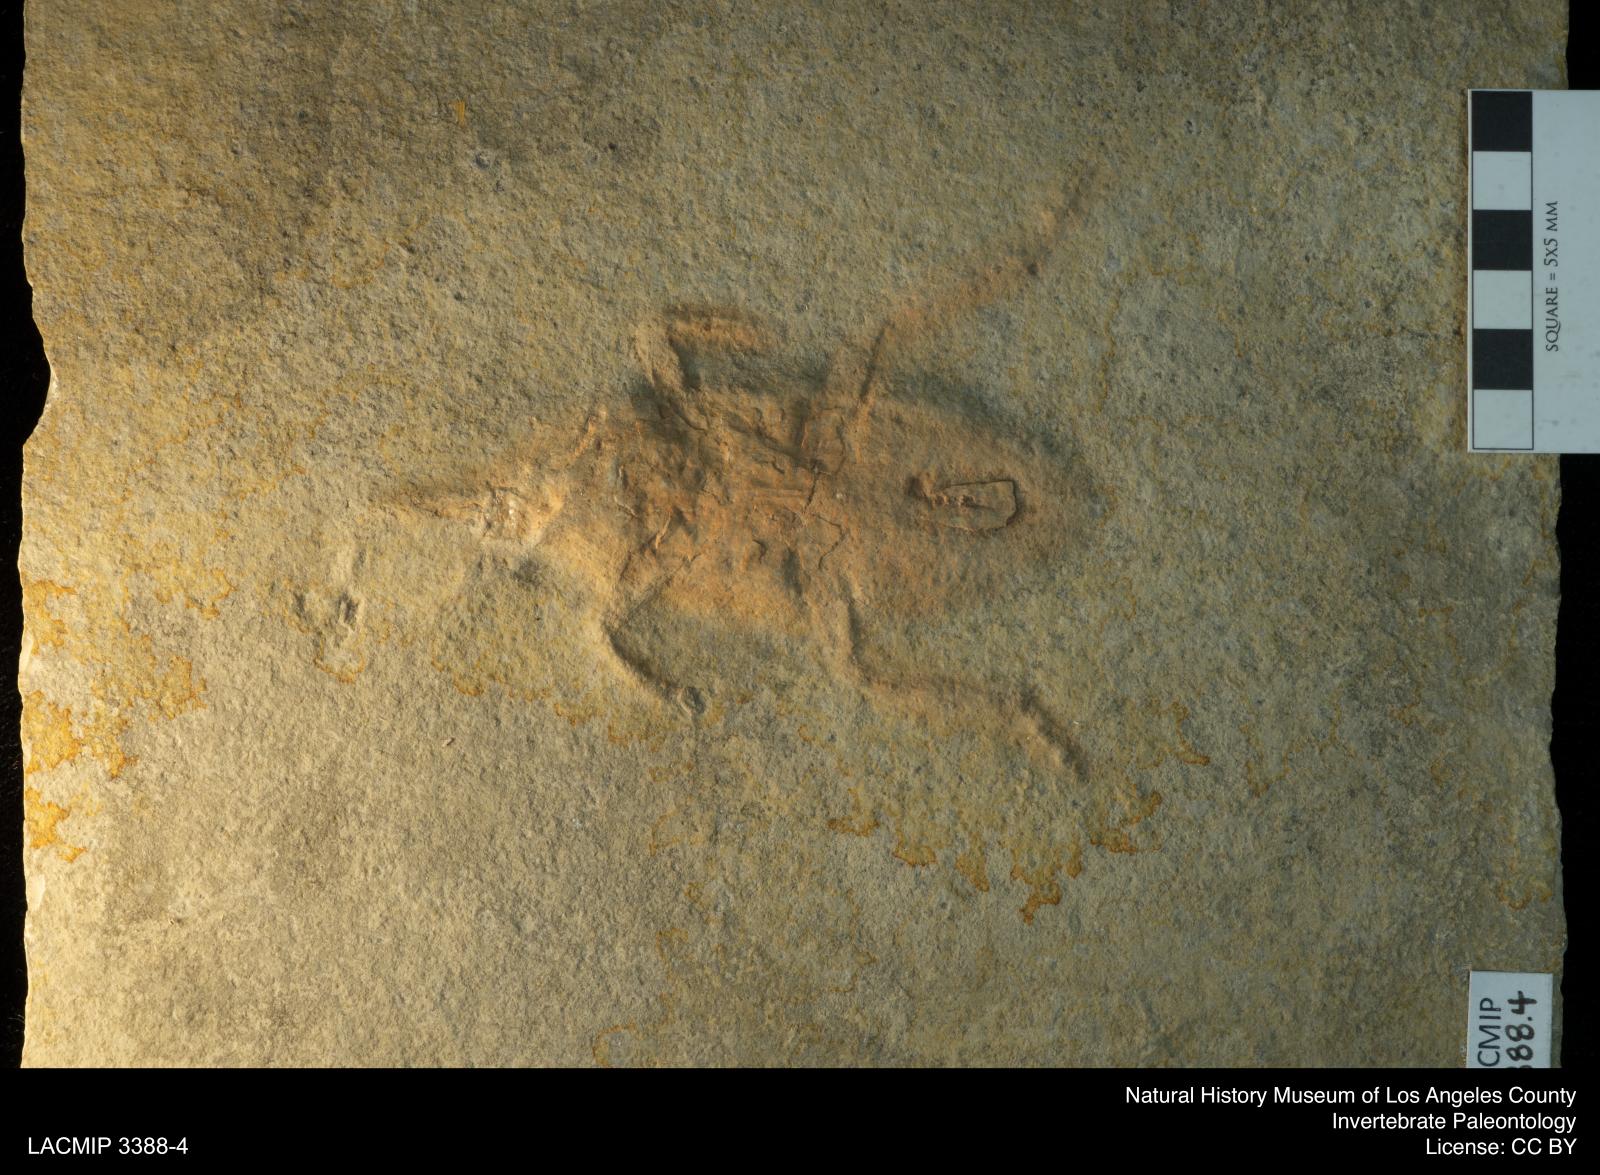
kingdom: Animalia
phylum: Arthropoda
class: Insecta
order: Hemiptera
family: Belostomatidae
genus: Scarabaeides
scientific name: Scarabaeides
